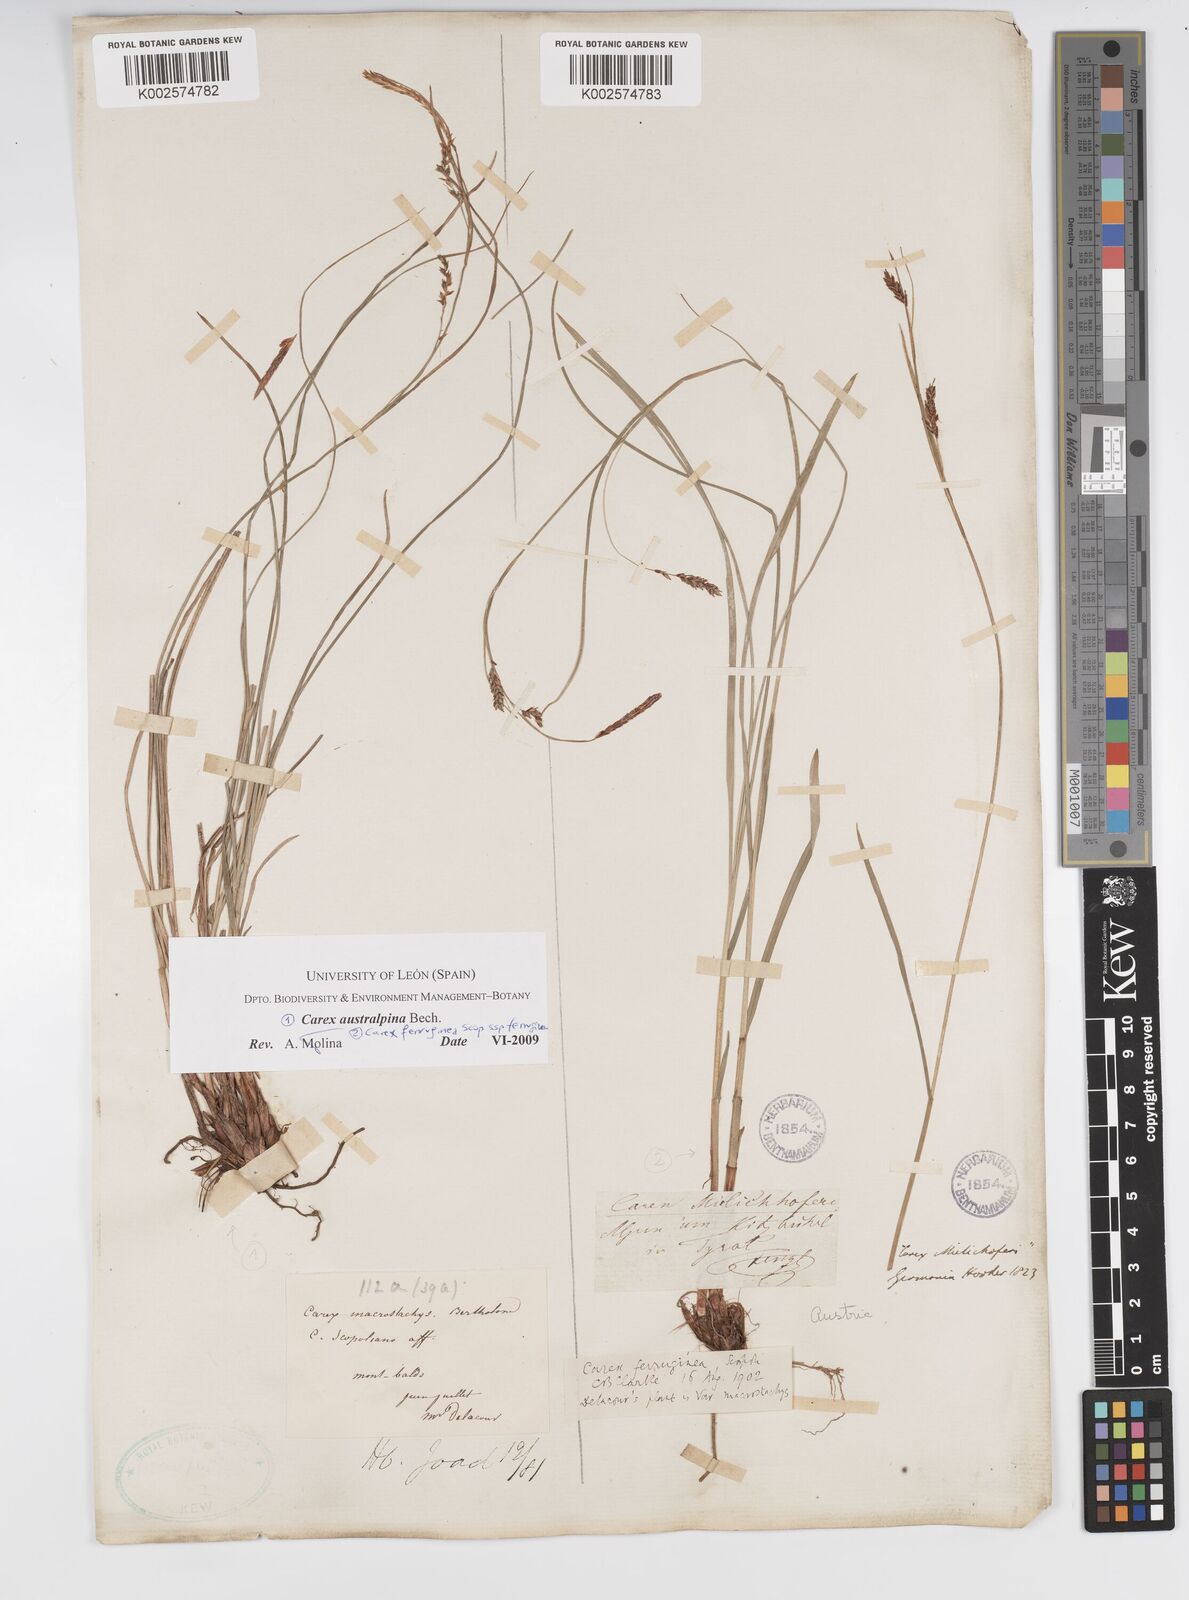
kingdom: Plantae
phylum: Tracheophyta
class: Liliopsida
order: Poales
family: Cyperaceae
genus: Carex
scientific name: Carex austroalpina
